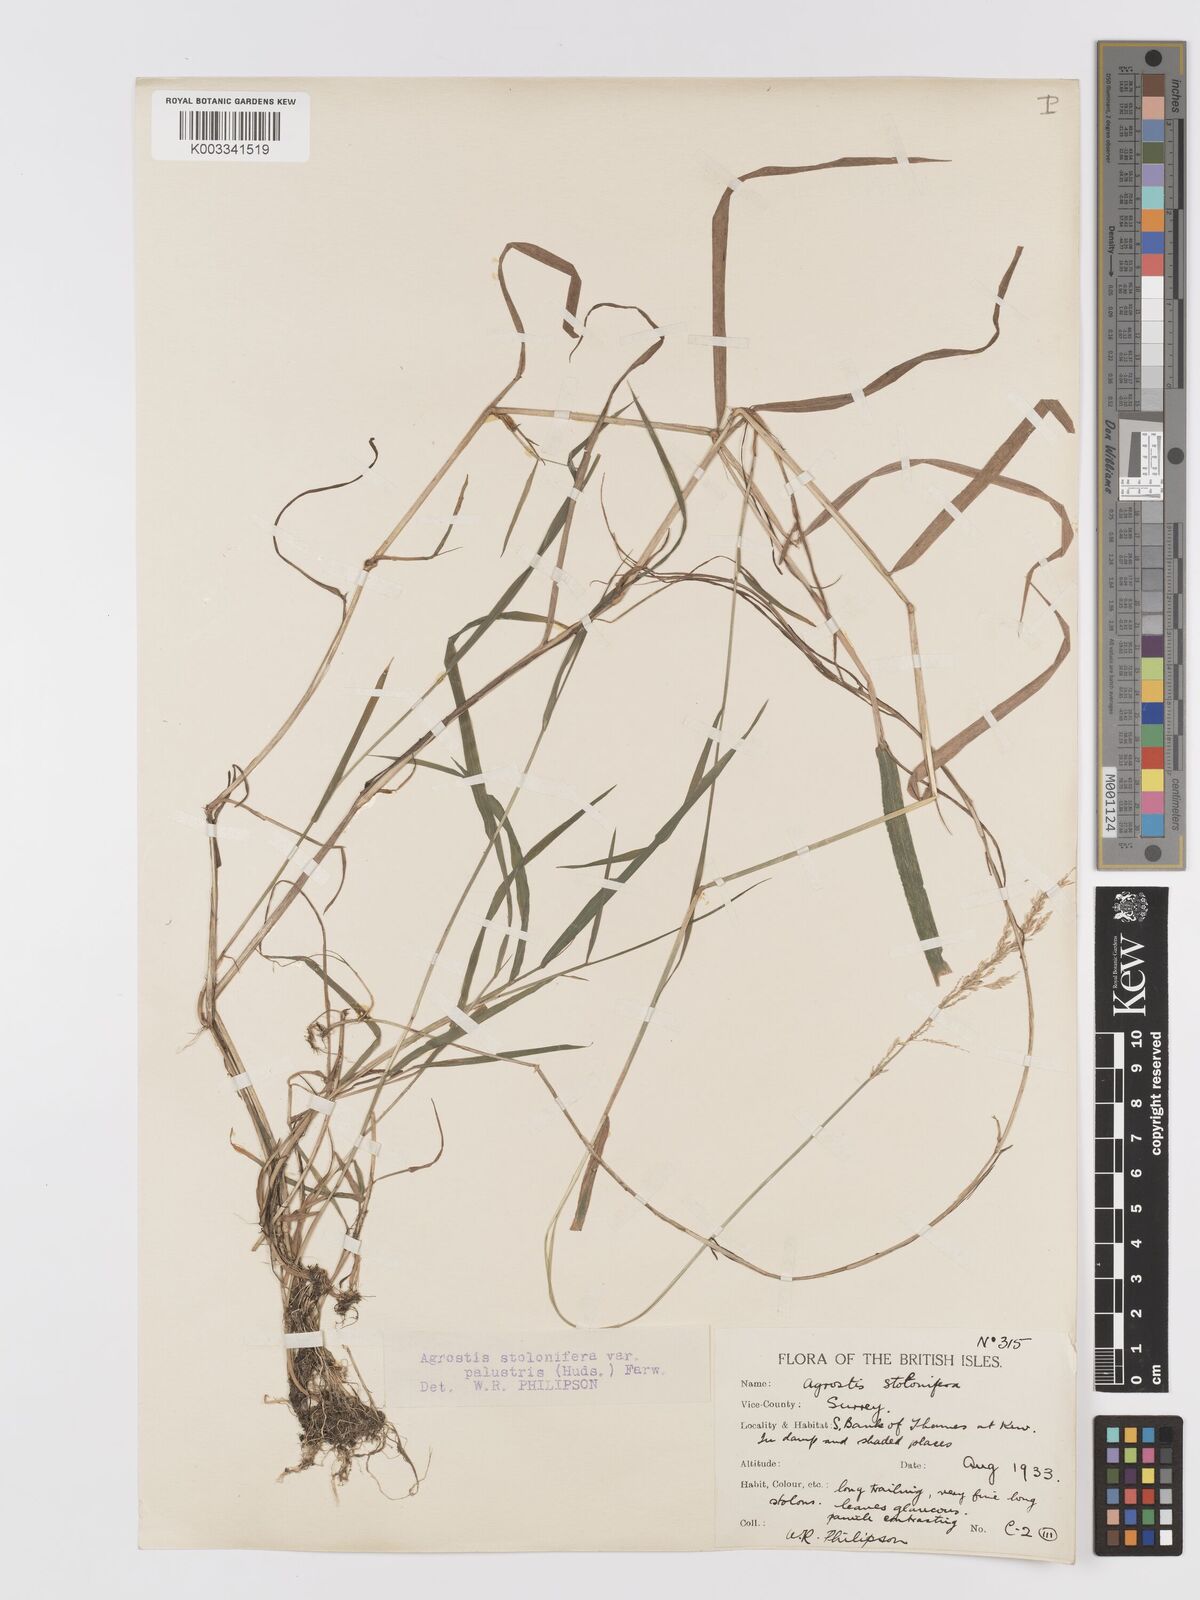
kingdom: Plantae
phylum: Tracheophyta
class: Liliopsida
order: Poales
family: Poaceae
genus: Agrostis
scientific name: Agrostis stolonifera
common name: Creeping bentgrass
